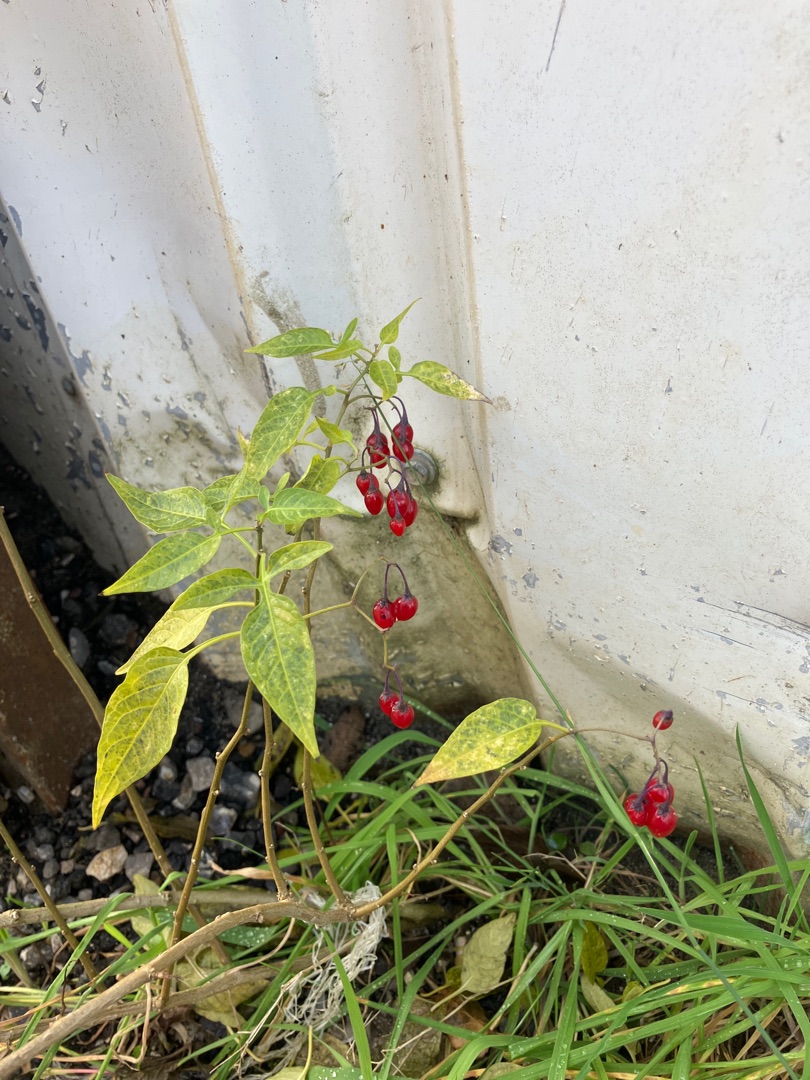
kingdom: Plantae
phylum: Tracheophyta
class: Magnoliopsida
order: Solanales
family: Solanaceae
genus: Solanum
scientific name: Solanum dulcamara
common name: Bittersød natskygge
